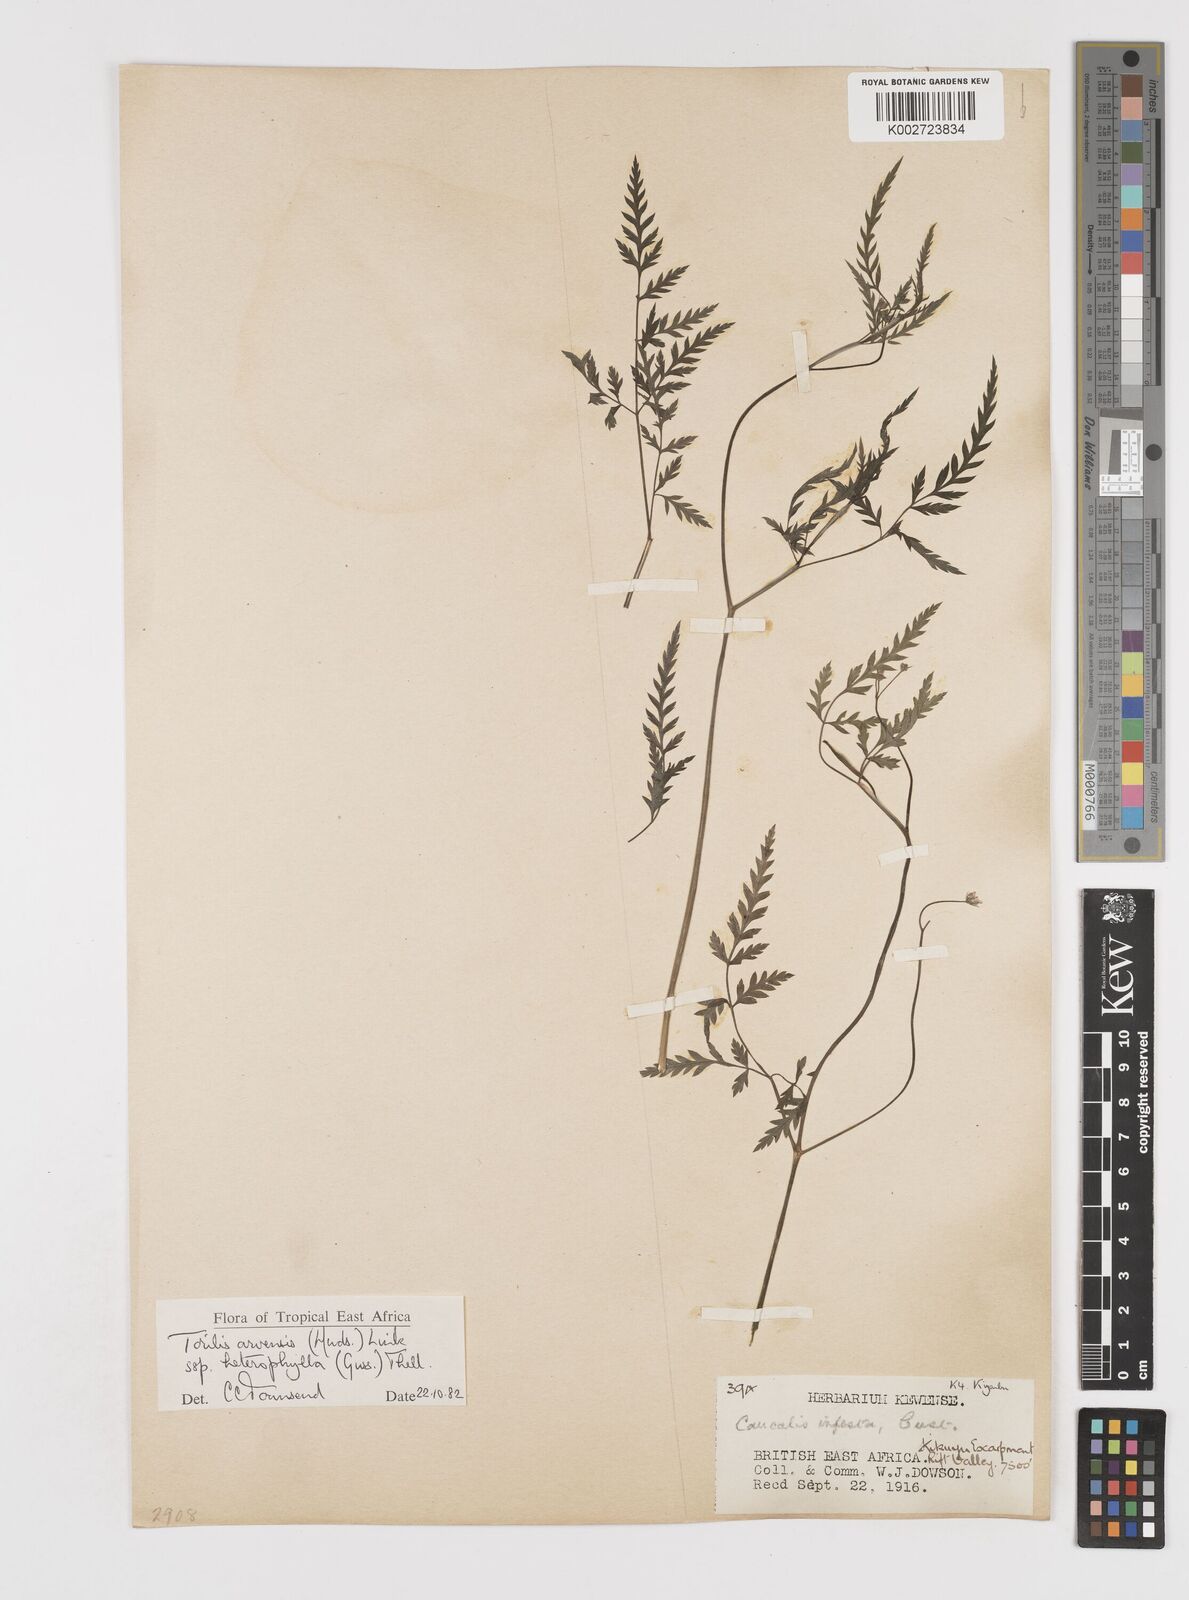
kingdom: Plantae
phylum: Tracheophyta
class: Magnoliopsida
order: Apiales
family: Apiaceae
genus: Torilis
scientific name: Torilis arvensis
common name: Spreading hedge-parsley
